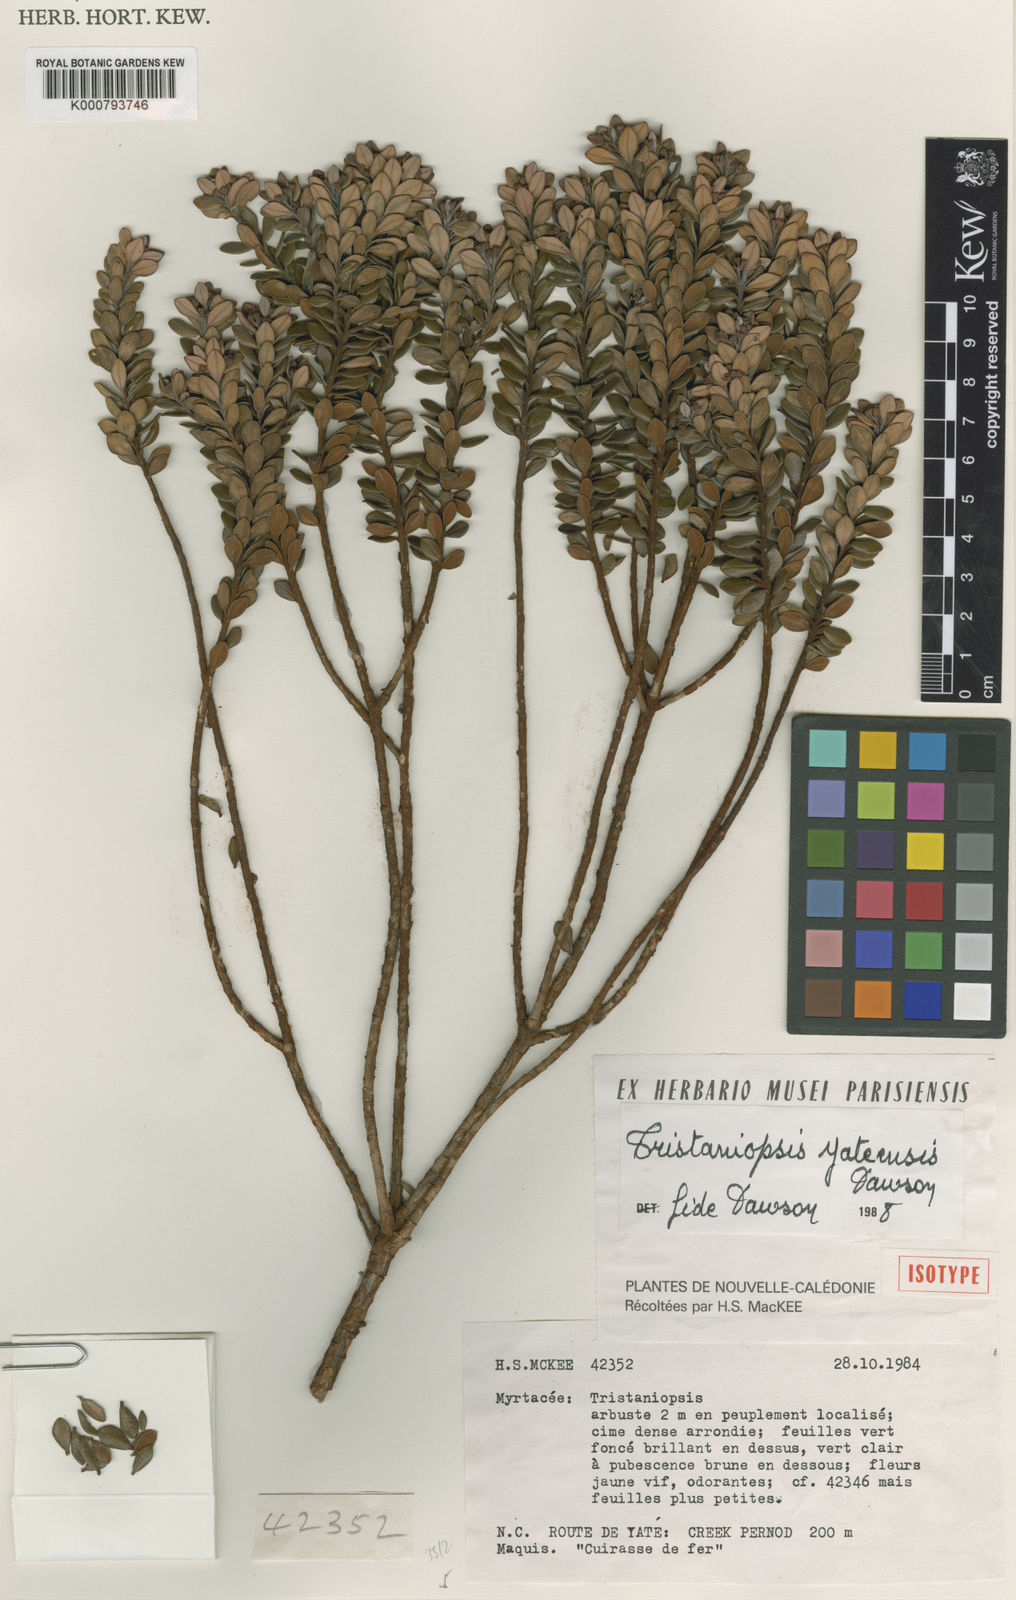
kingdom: Plantae
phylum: Tracheophyta
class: Magnoliopsida
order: Myrtales
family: Myrtaceae
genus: Tristaniopsis
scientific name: Tristaniopsis yateensis
